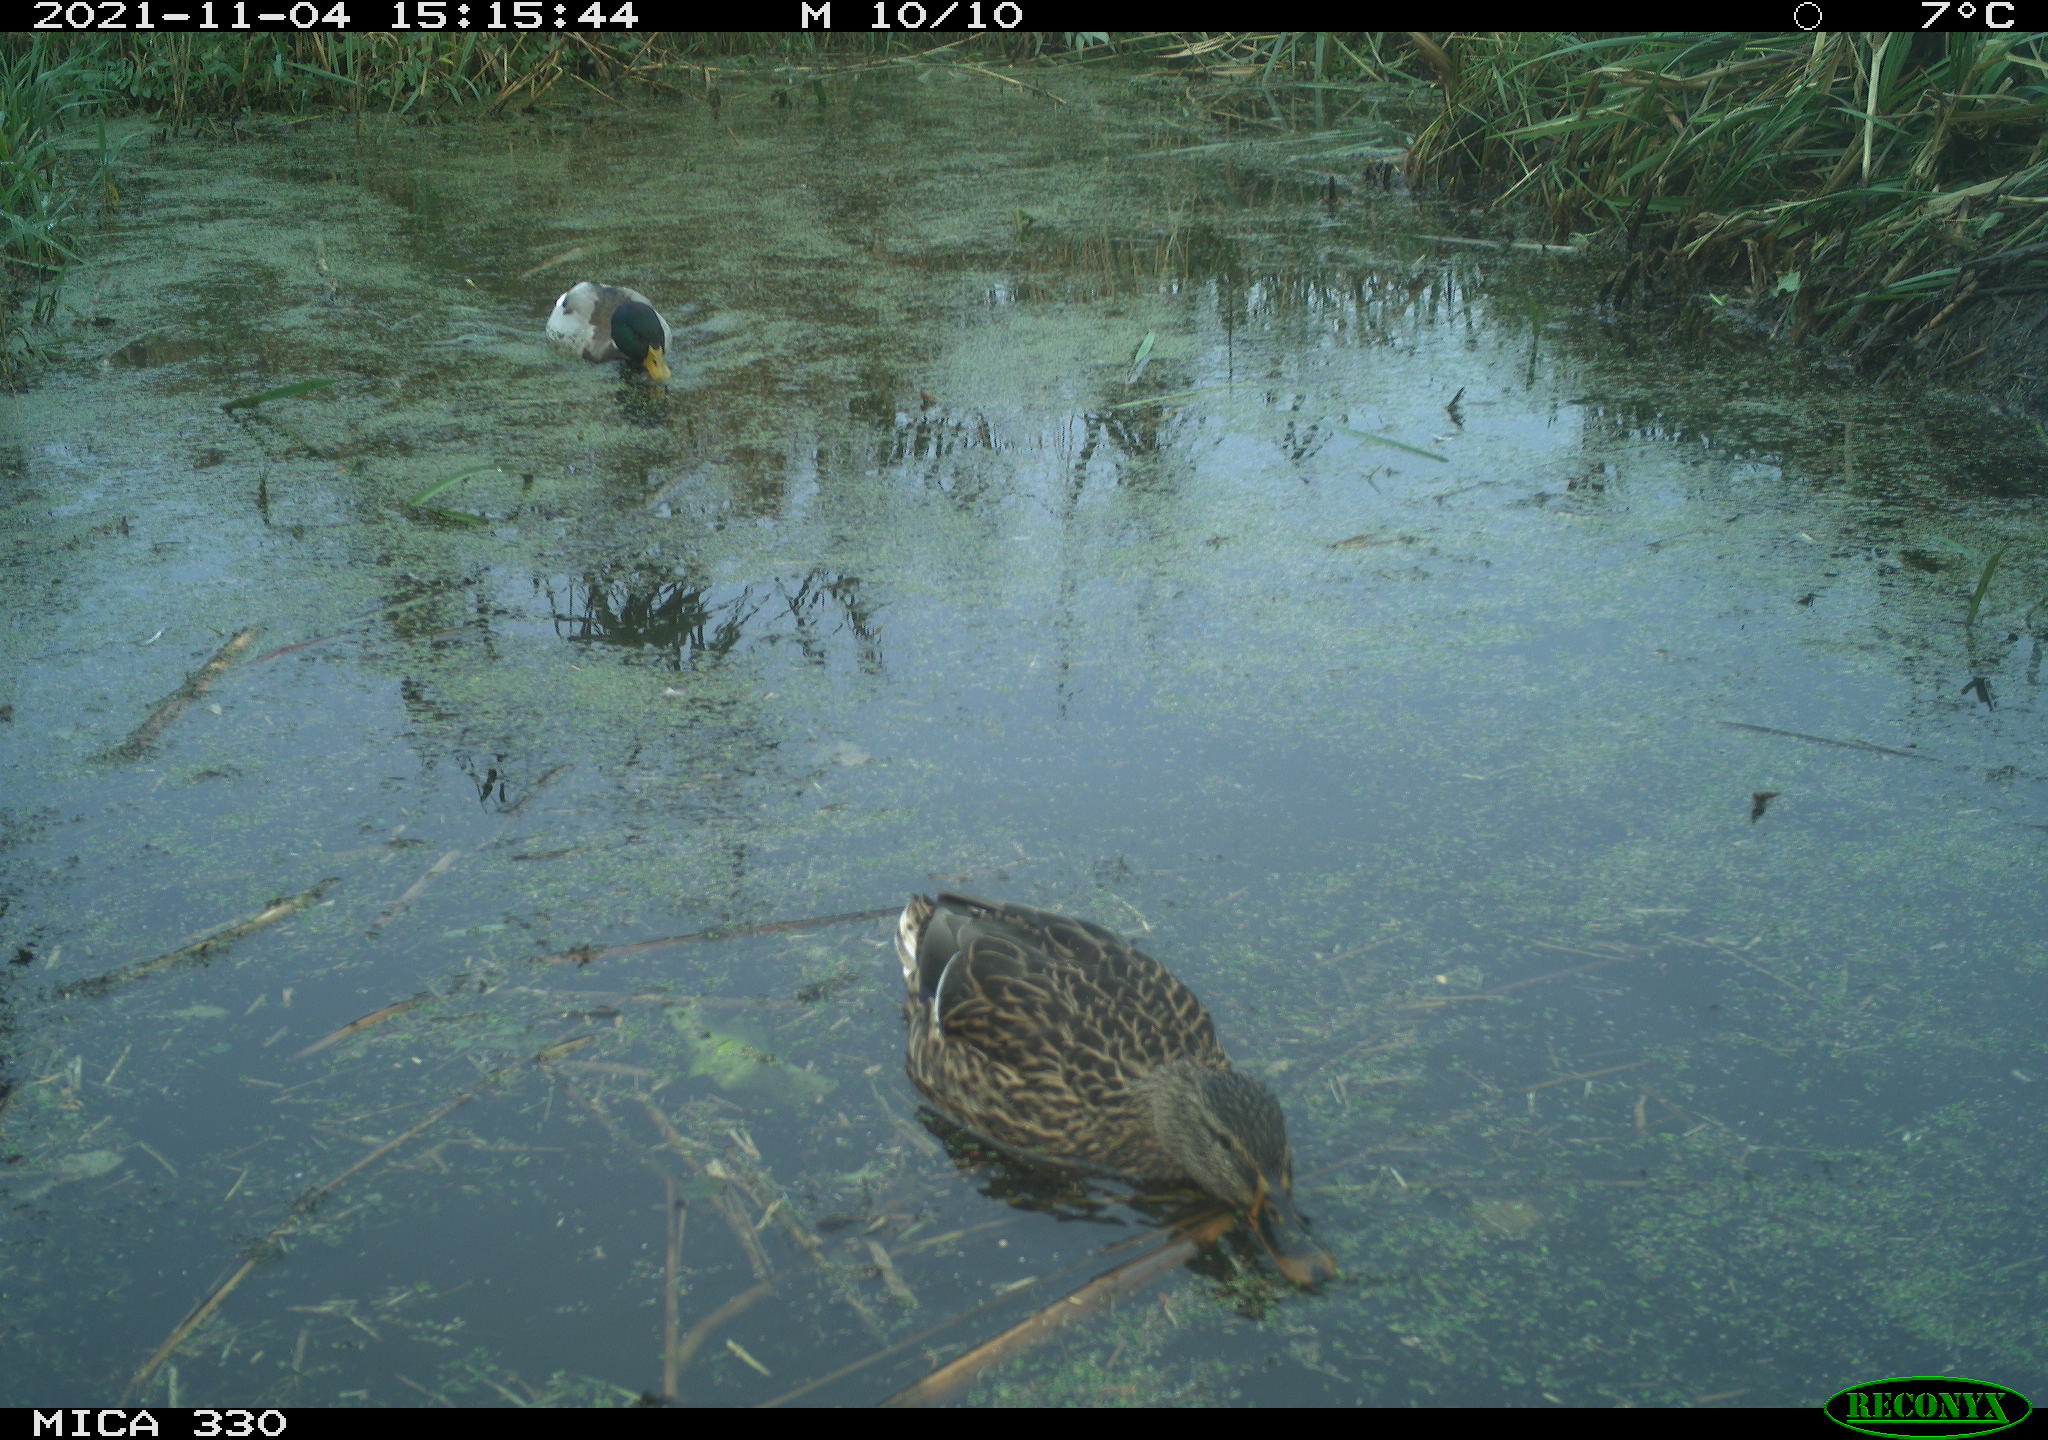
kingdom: Animalia
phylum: Chordata
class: Aves
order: Anseriformes
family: Anatidae
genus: Anas
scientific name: Anas platyrhynchos
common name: Mallard
